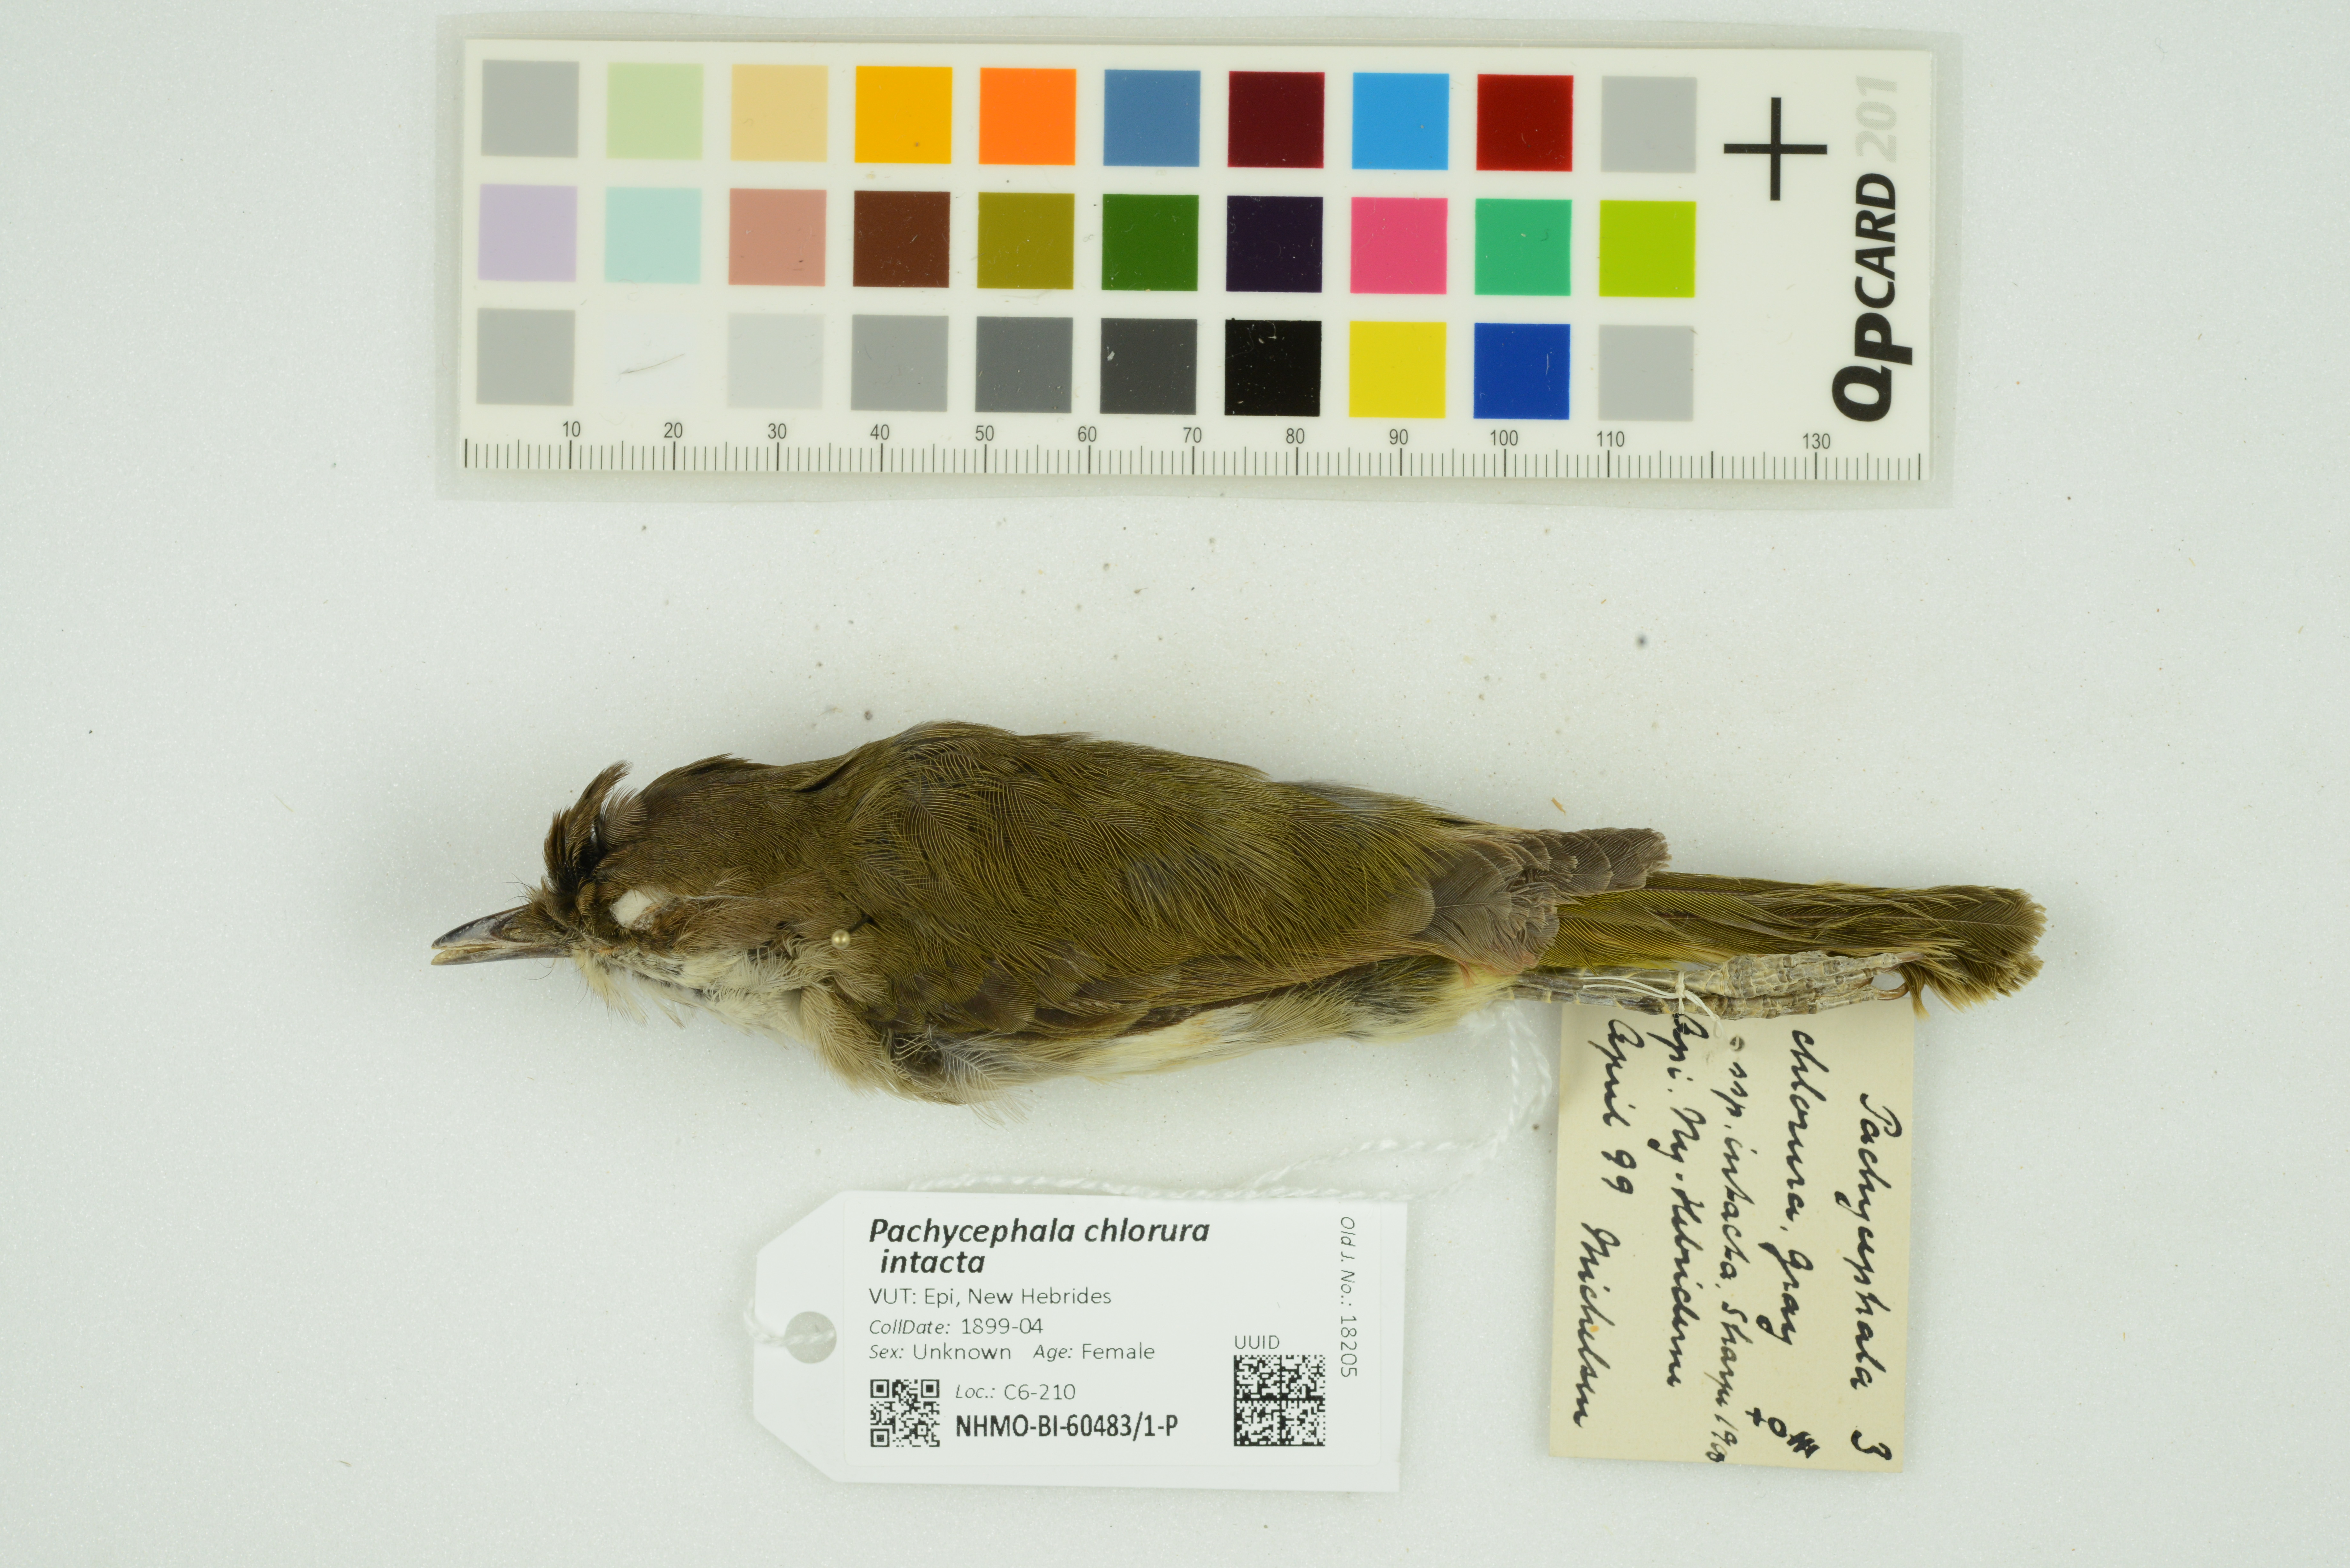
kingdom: Animalia
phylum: Chordata
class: Aves
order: Passeriformes
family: Pachycephalidae
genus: Pachycephala
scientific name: Pachycephala chlorura
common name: Melanesian whistler
